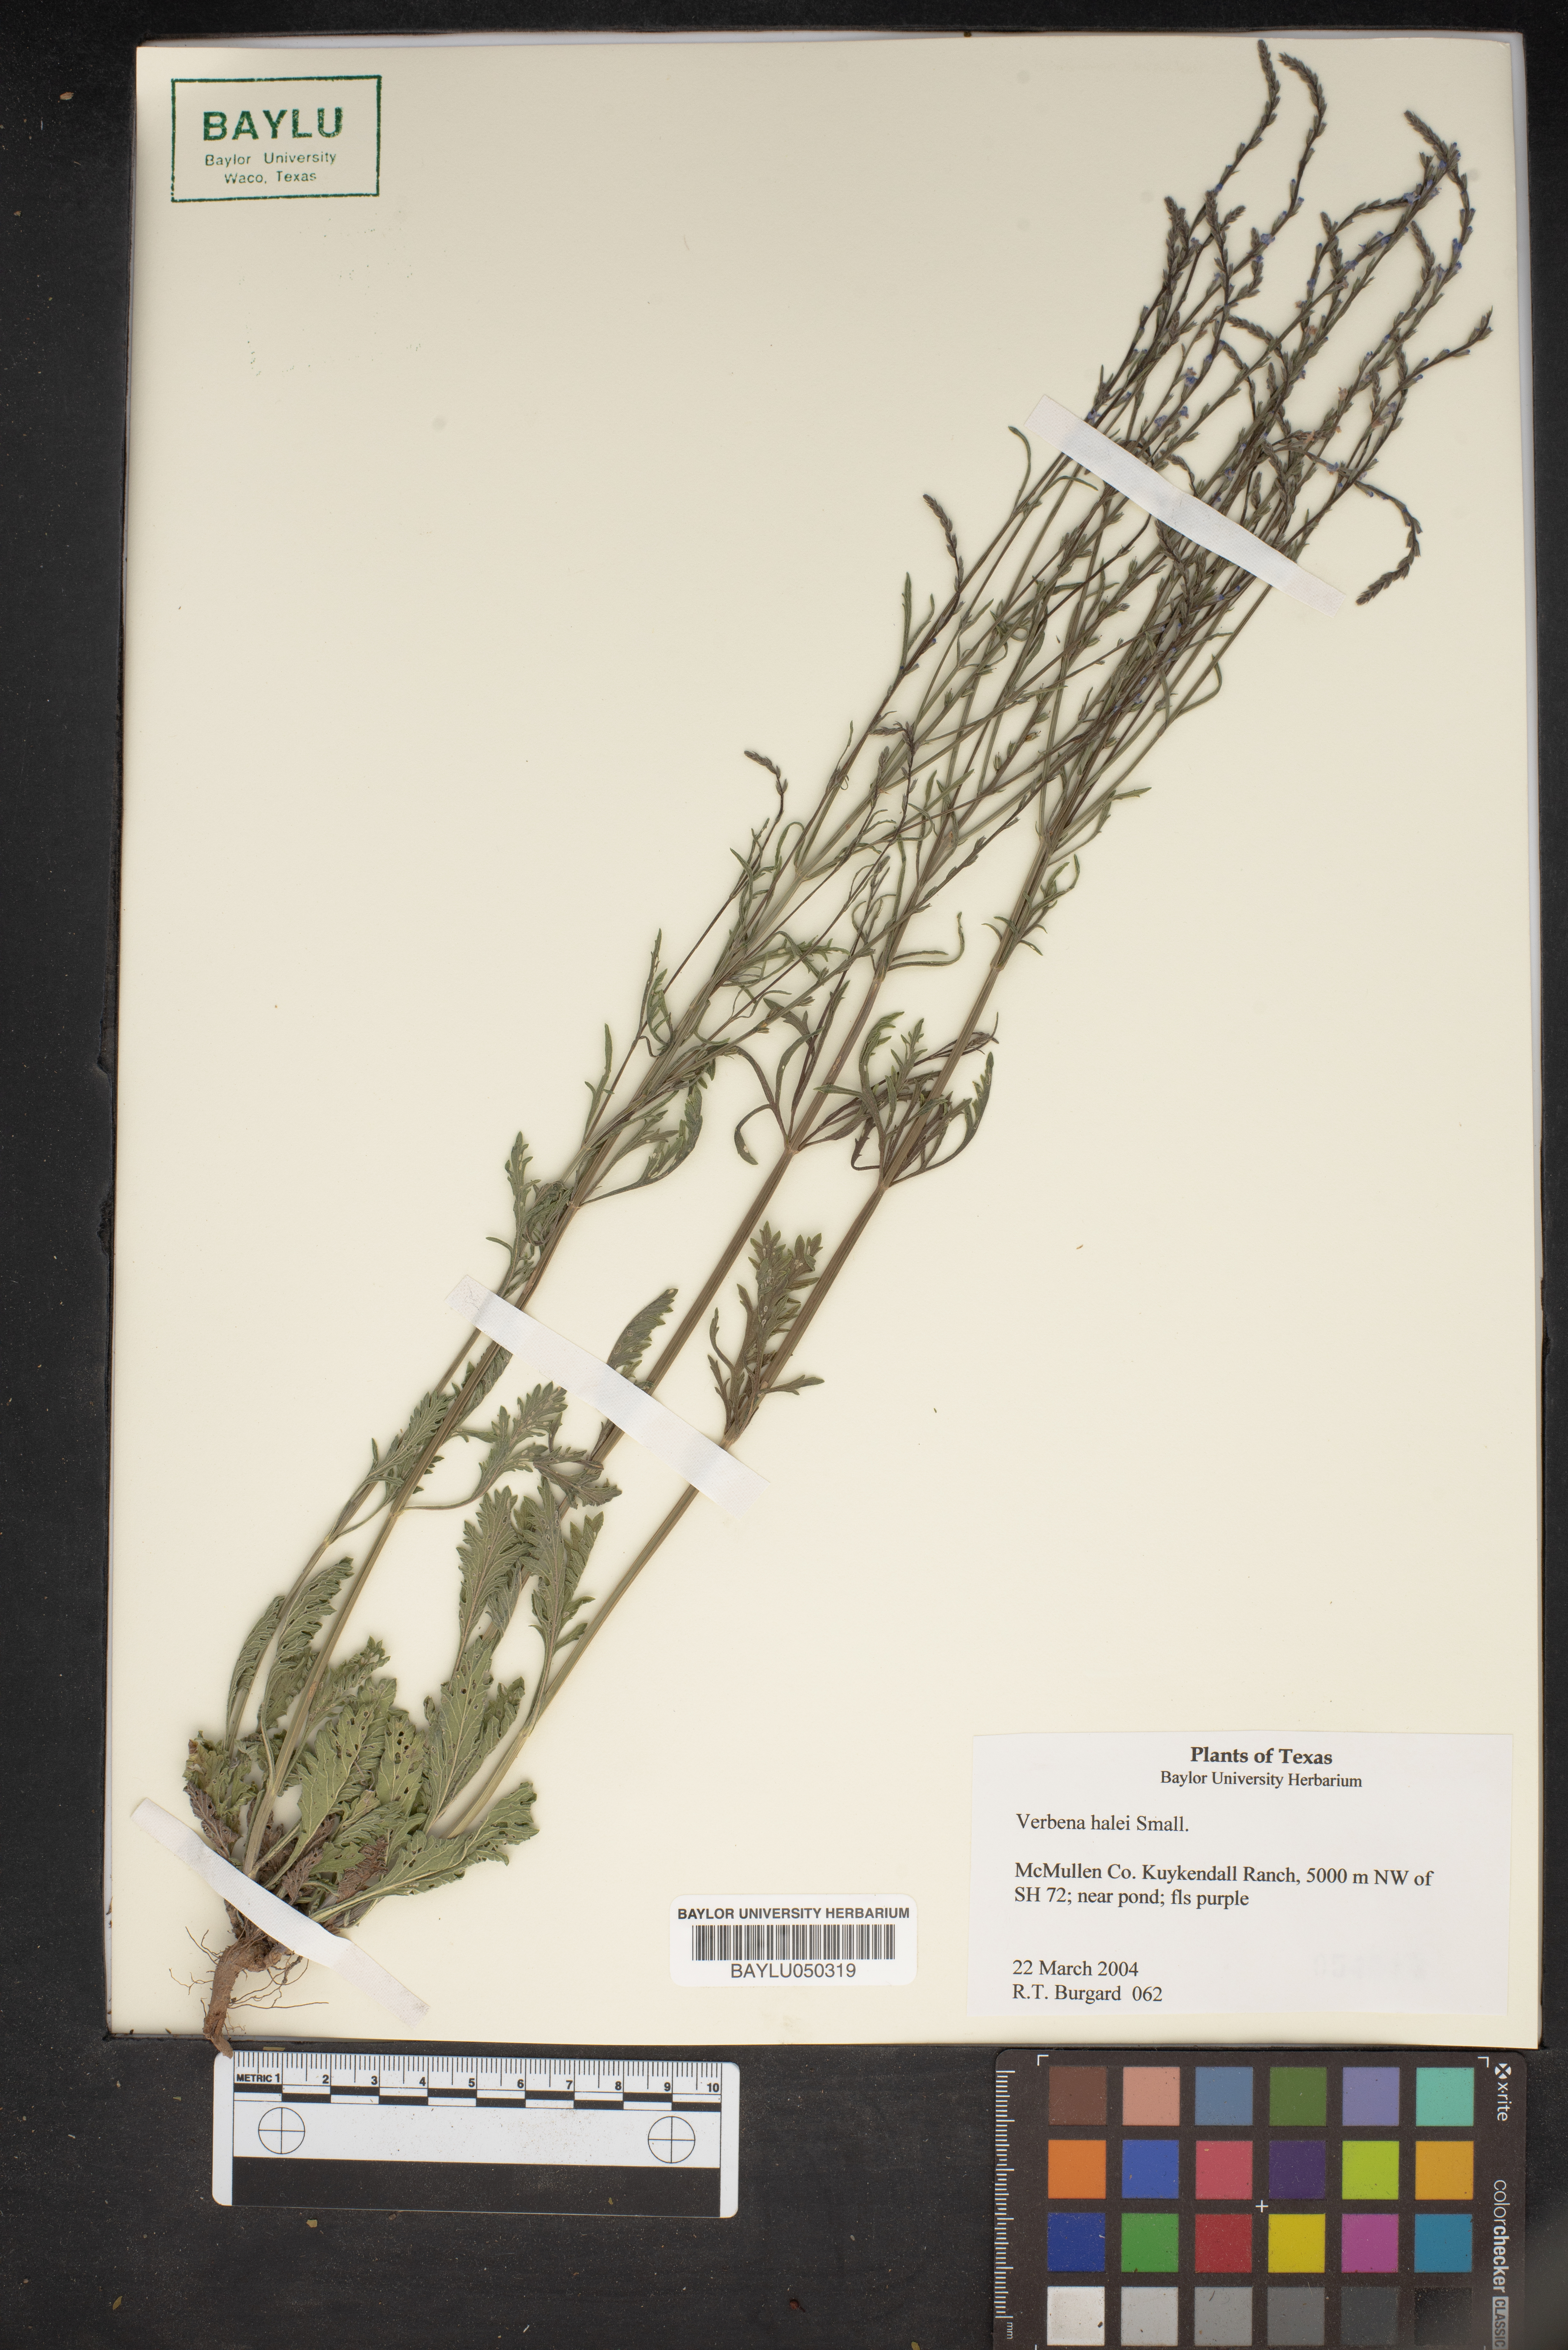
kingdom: Plantae
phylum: Tracheophyta
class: Magnoliopsida
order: Lamiales
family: Verbenaceae
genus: Verbena
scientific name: Verbena halei
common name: Texas vervain
